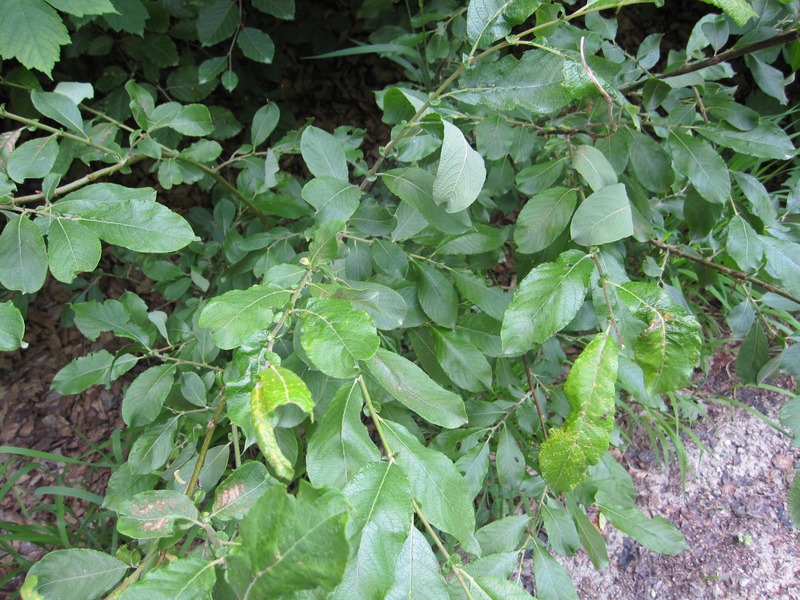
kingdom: Fungi
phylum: Basidiomycota
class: Pucciniomycetes
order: Pucciniales
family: Melampsoraceae
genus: Melampsora
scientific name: Melampsora caprearum
